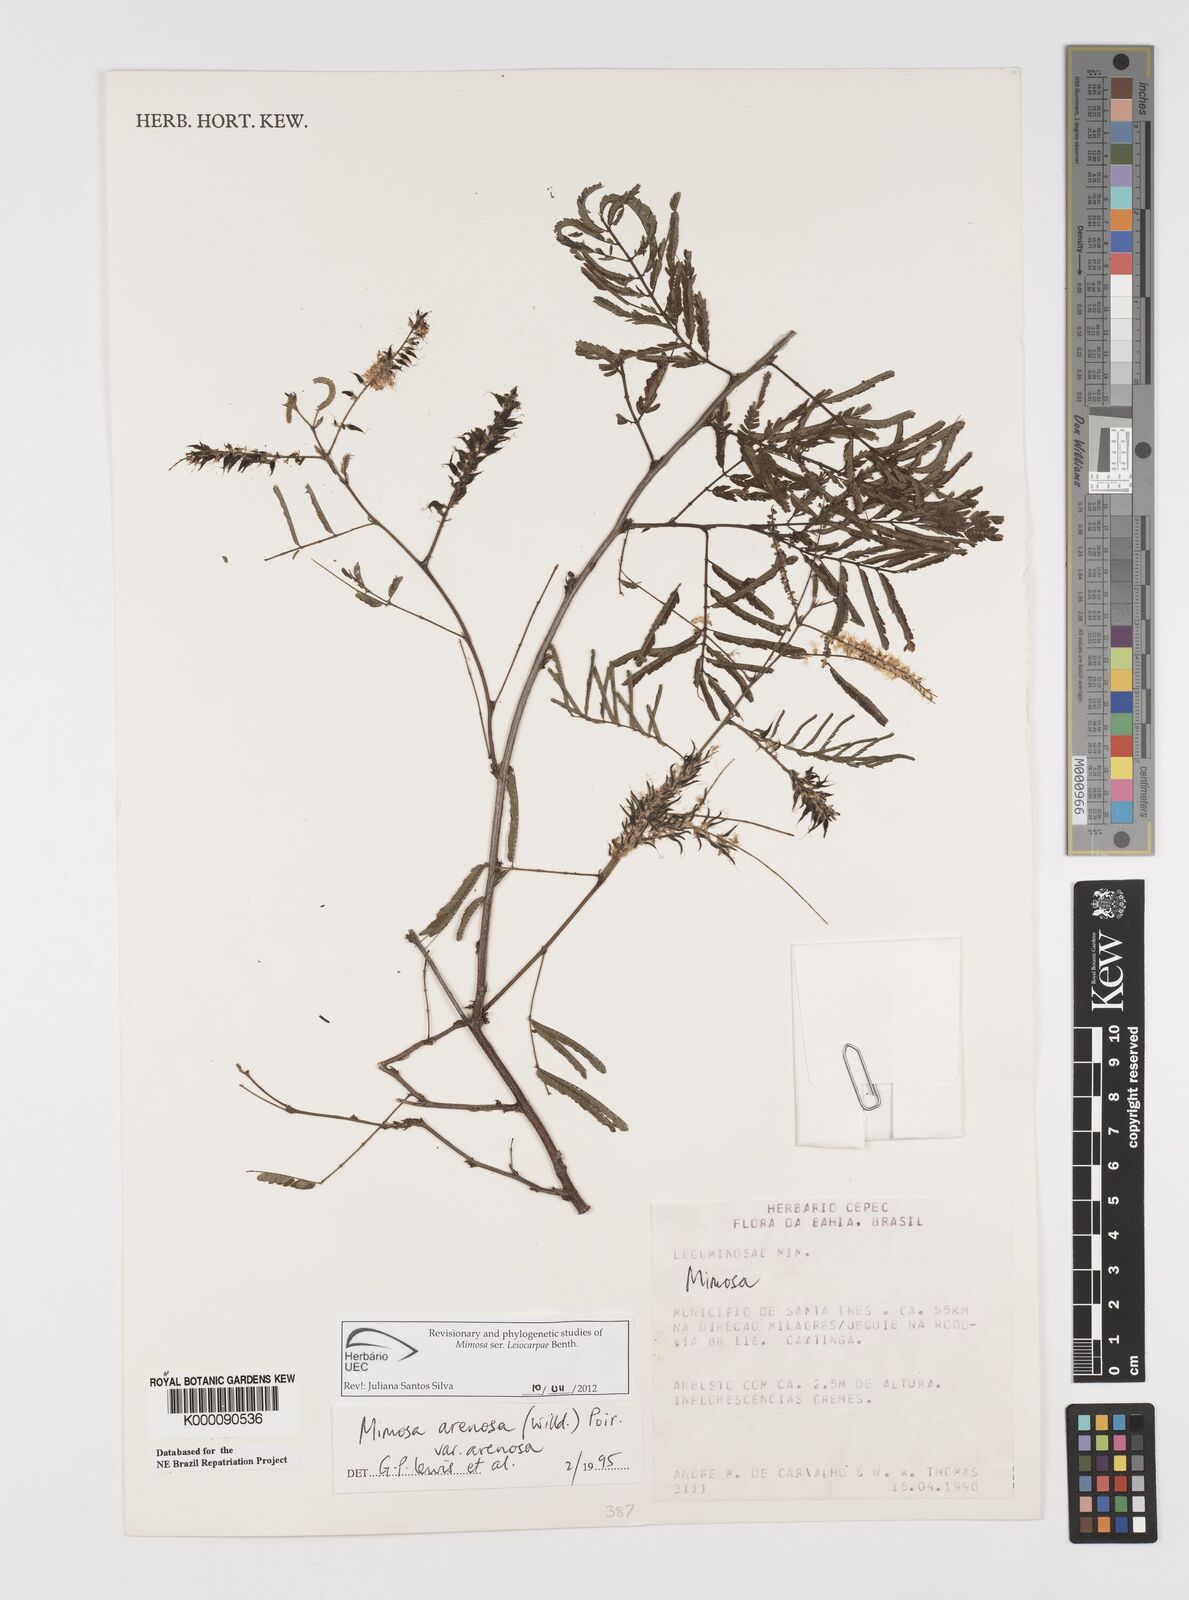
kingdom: Plantae
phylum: Tracheophyta
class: Magnoliopsida
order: Fabales
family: Fabaceae
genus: Mimosa
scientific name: Mimosa arenosa
